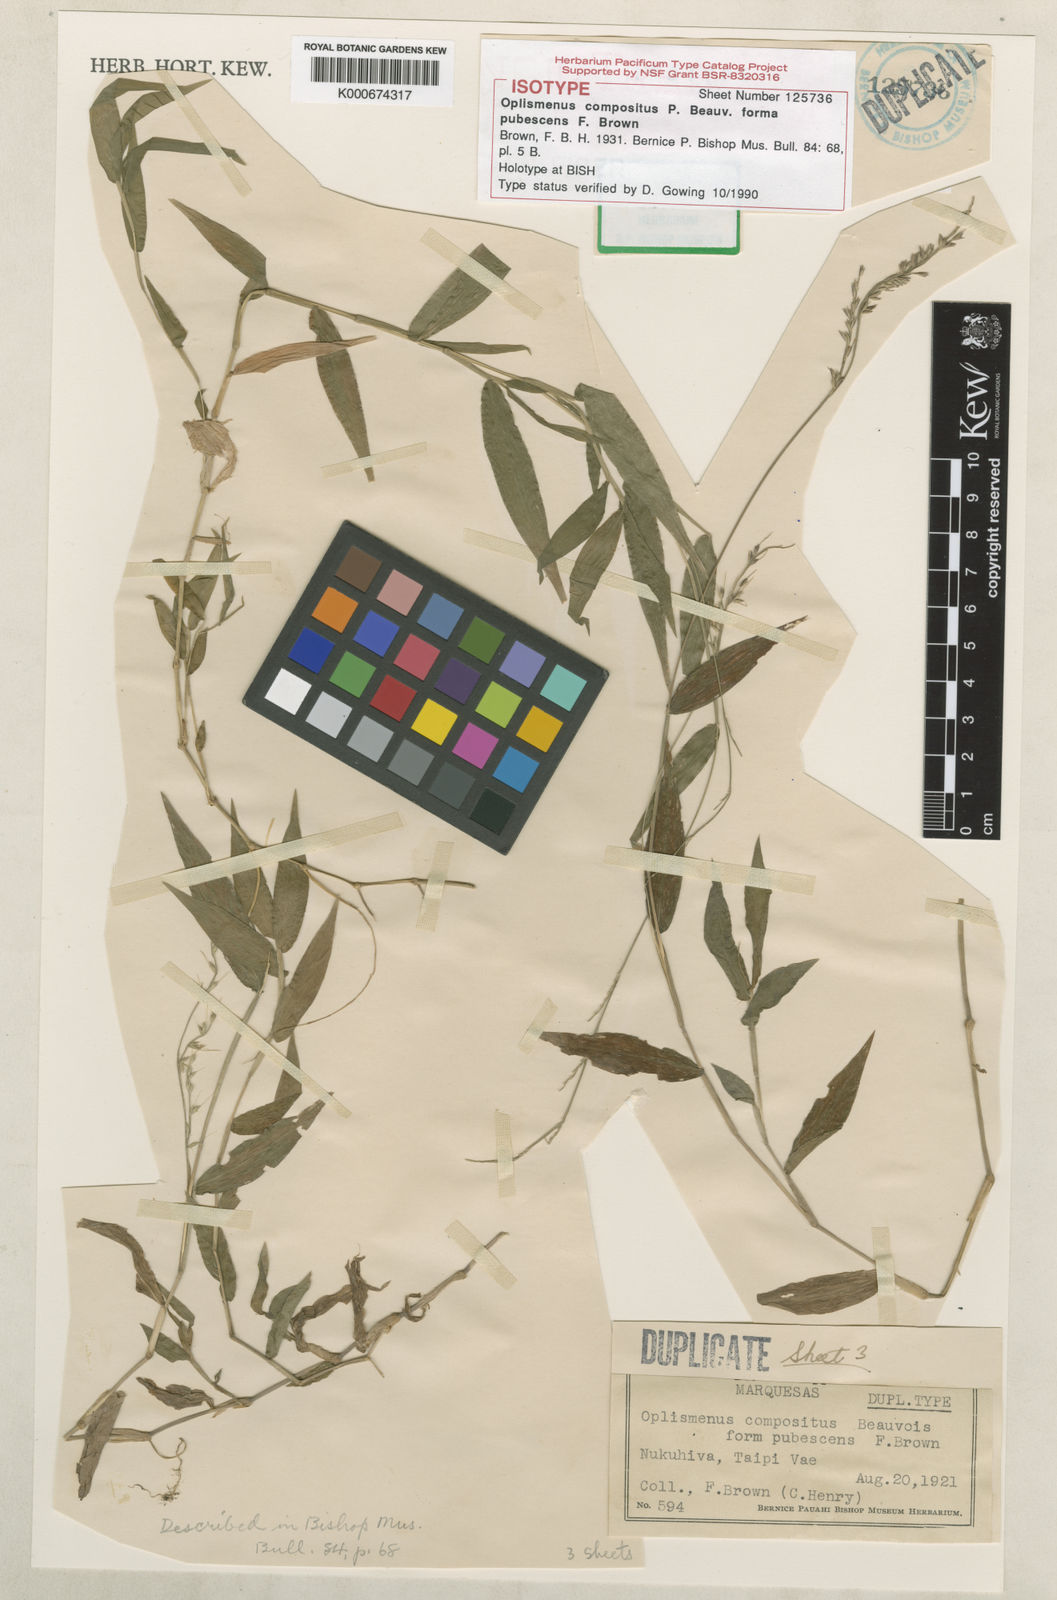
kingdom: Plantae
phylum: Tracheophyta
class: Liliopsida
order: Poales
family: Poaceae
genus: Oplismenus
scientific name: Oplismenus compositus
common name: Running mountain grass
